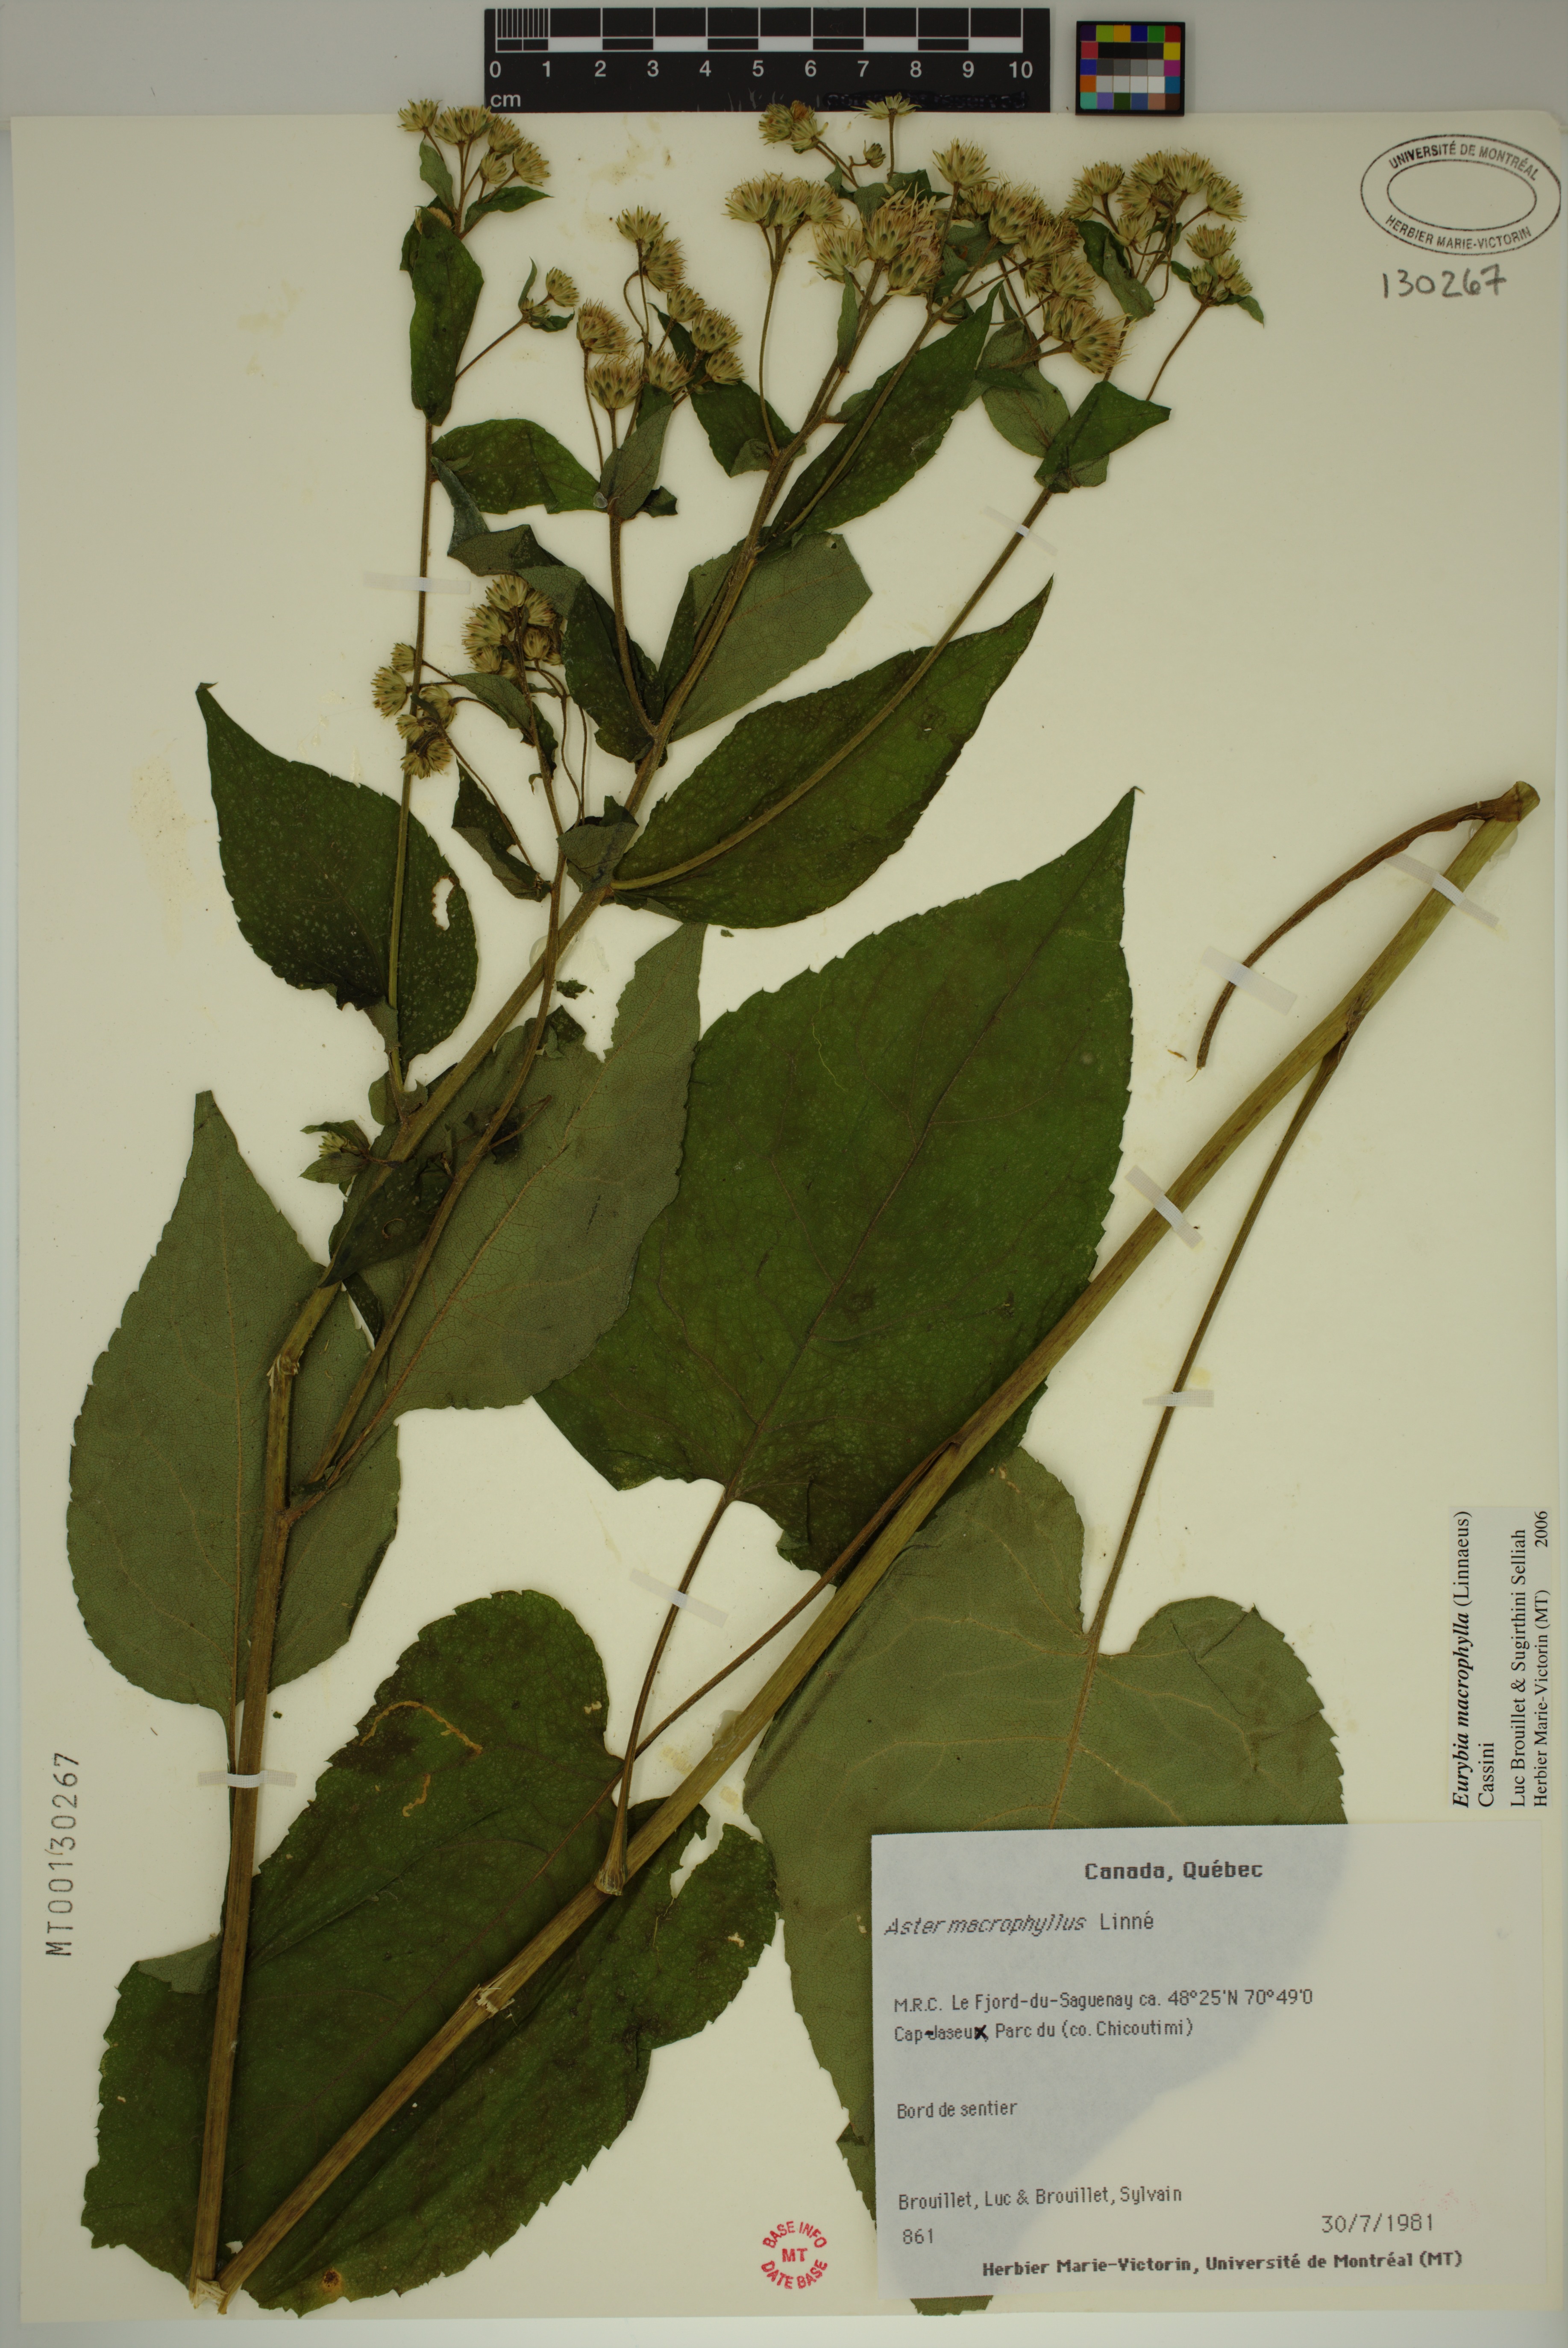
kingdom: Plantae
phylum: Tracheophyta
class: Magnoliopsida
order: Asterales
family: Asteraceae
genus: Eurybia
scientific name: Eurybia macrophylla
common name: Big-leaved aster
